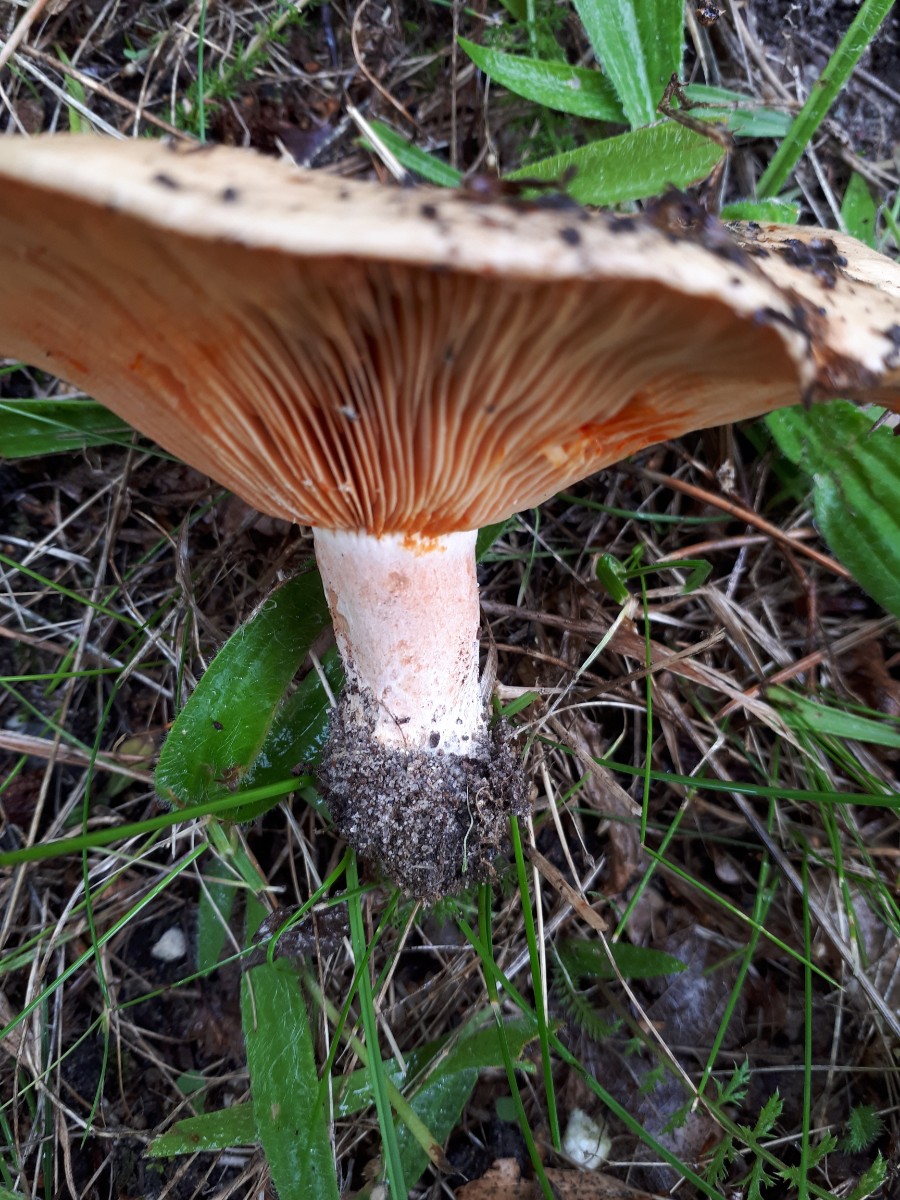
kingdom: Fungi
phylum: Basidiomycota
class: Agaricomycetes
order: Russulales
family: Russulaceae
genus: Lactarius
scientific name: Lactarius deliciosus
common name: velsmagende mælkehat
